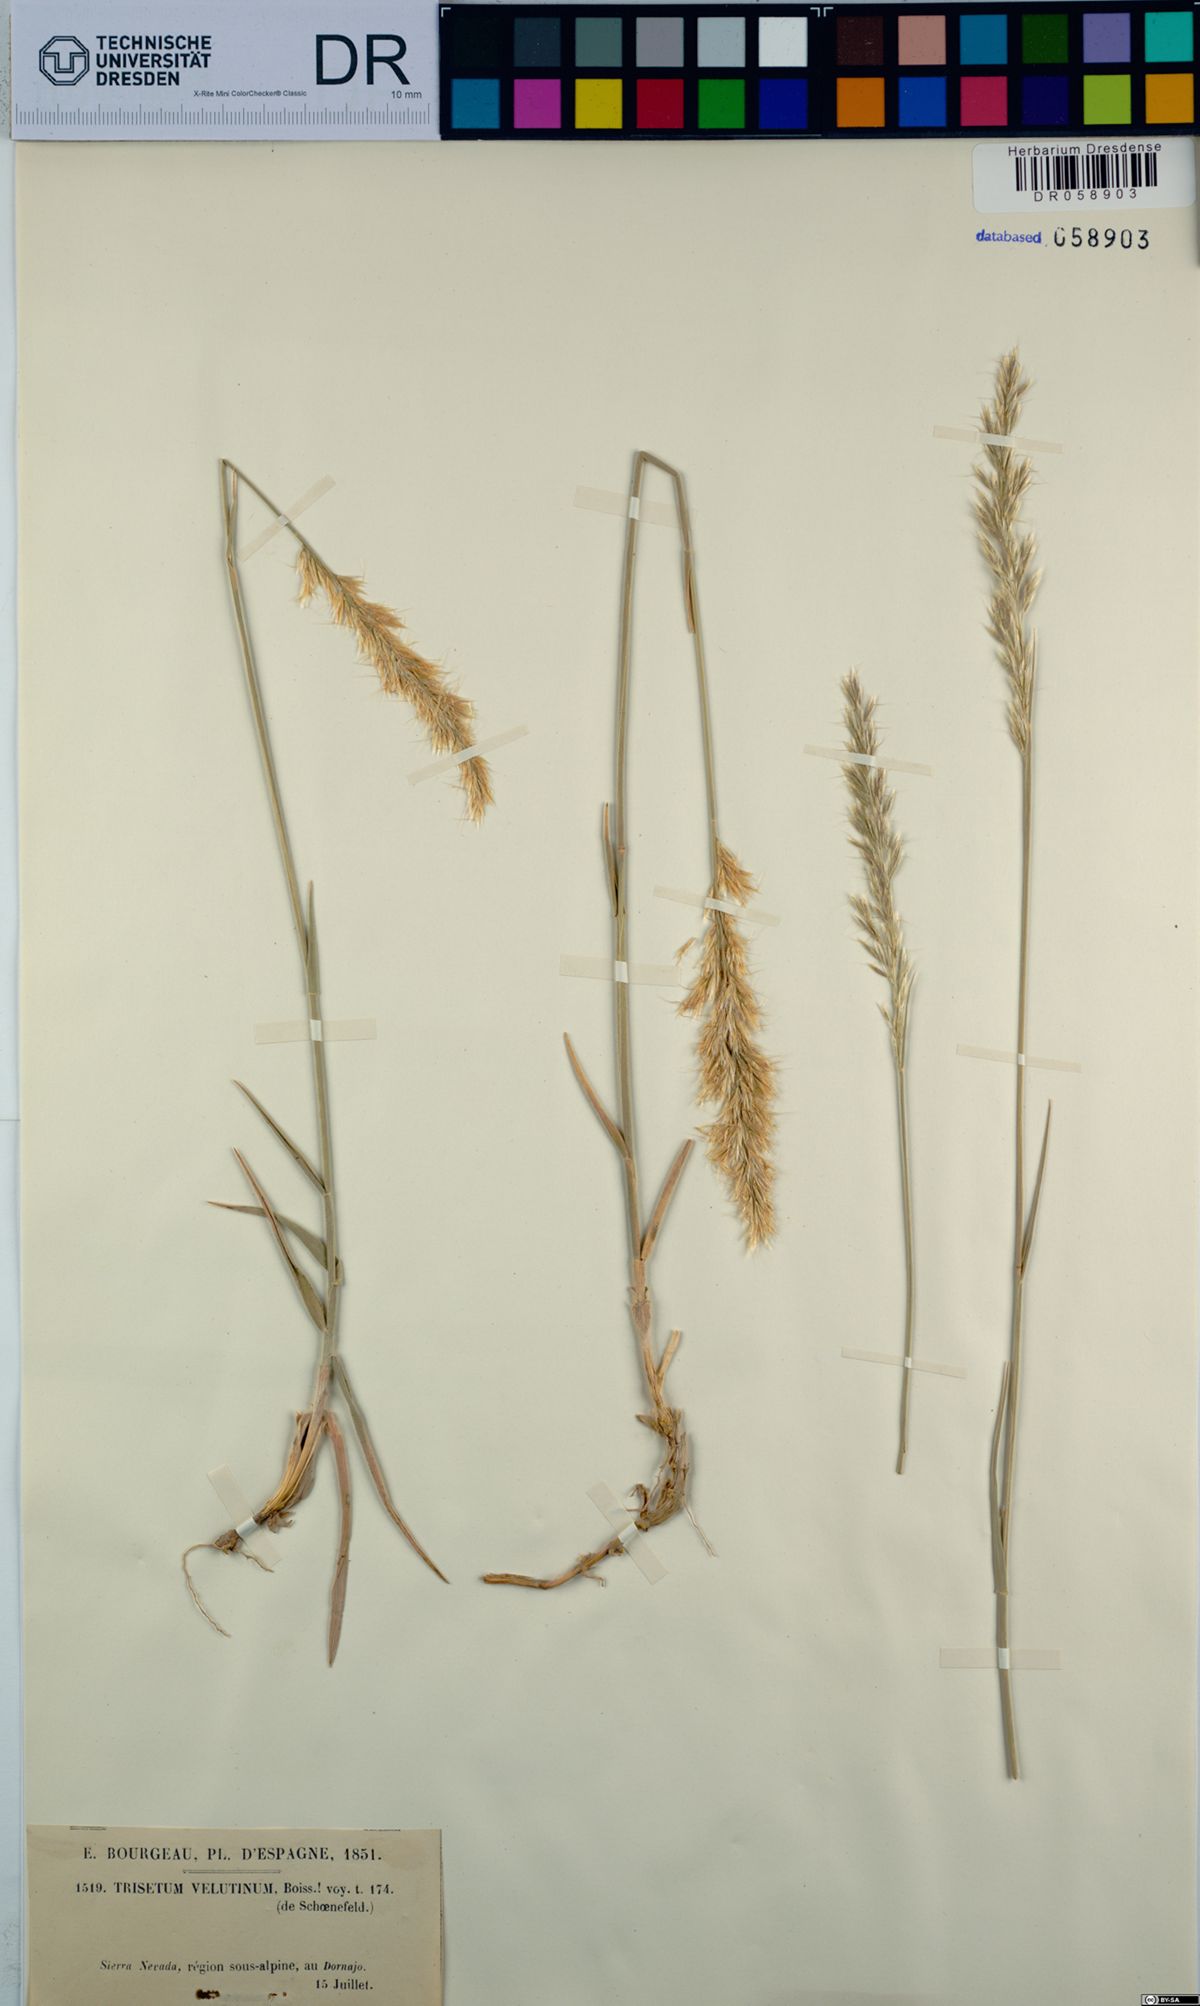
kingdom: Plantae
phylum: Tracheophyta
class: Liliopsida
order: Poales
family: Poaceae
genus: Trisetum
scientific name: Trisetum velutinum
